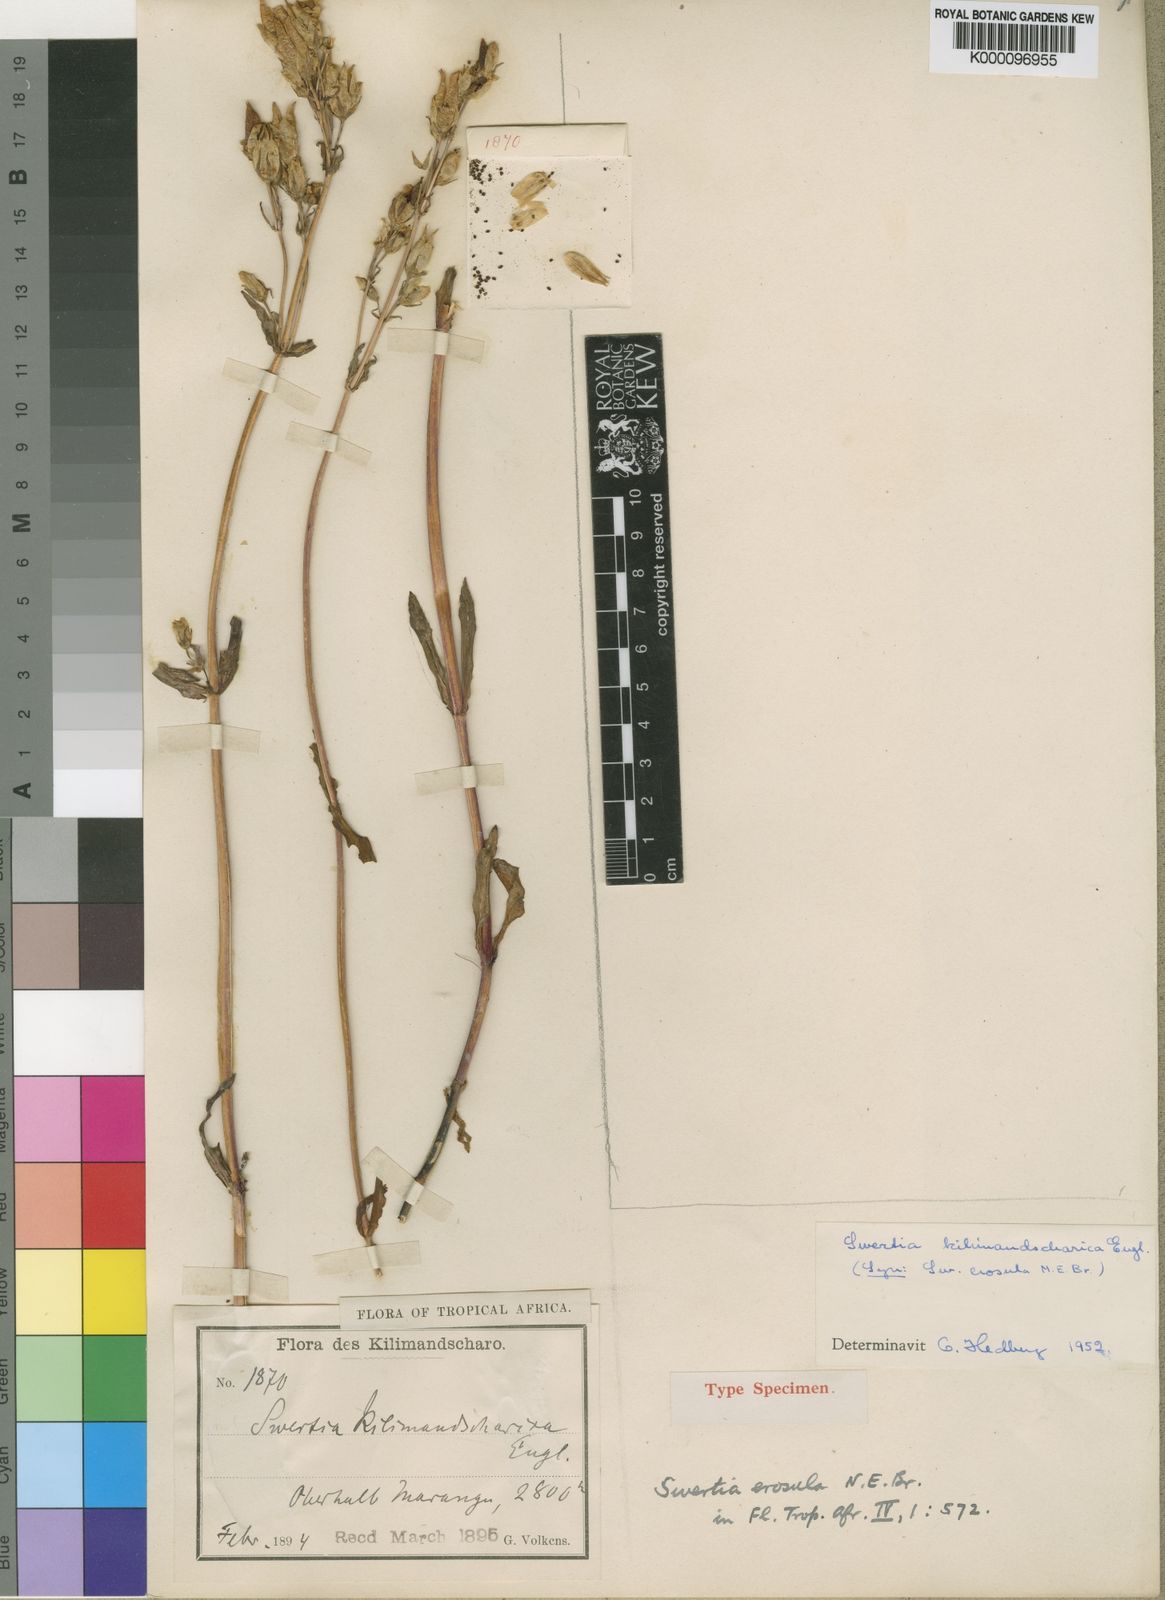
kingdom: Plantae
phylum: Tracheophyta
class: Magnoliopsida
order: Gentianales
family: Gentianaceae
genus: Swertia
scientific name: Swertia kilimandscharica
